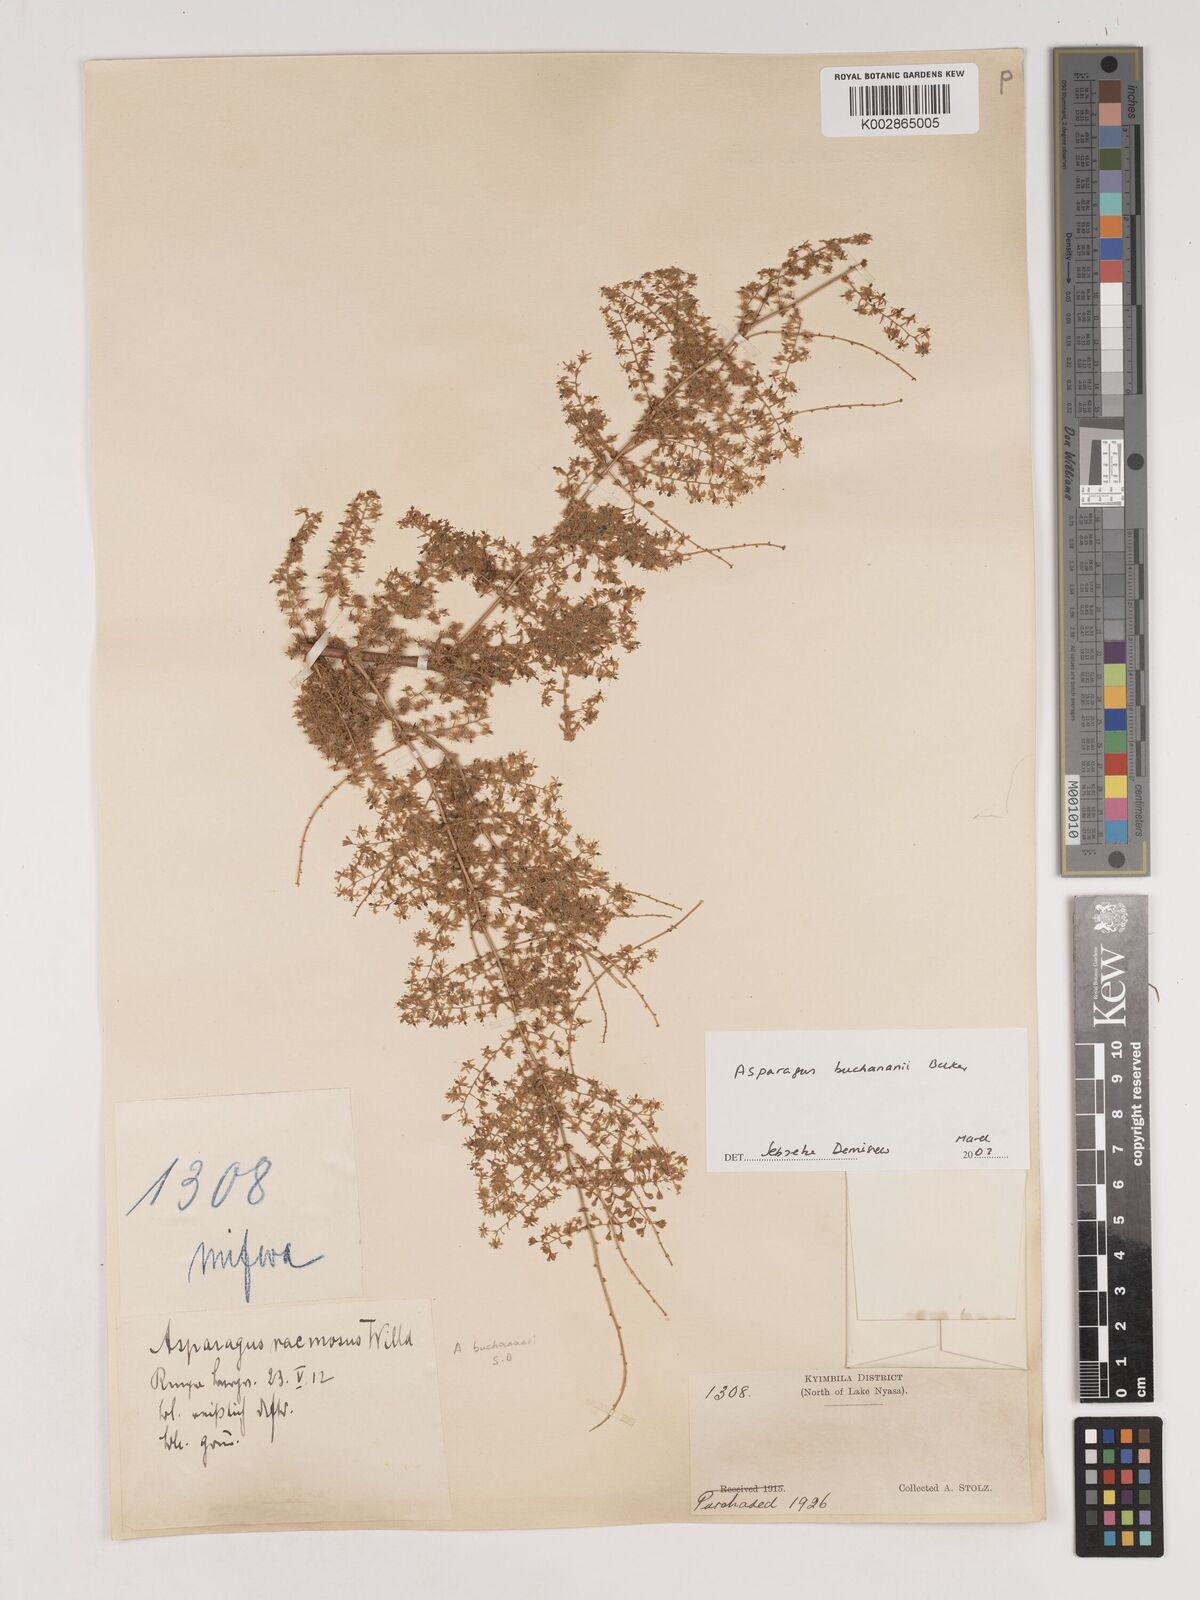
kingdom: Plantae
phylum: Tracheophyta
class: Liliopsida
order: Asparagales
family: Asparagaceae
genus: Asparagus
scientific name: Asparagus buchananii
